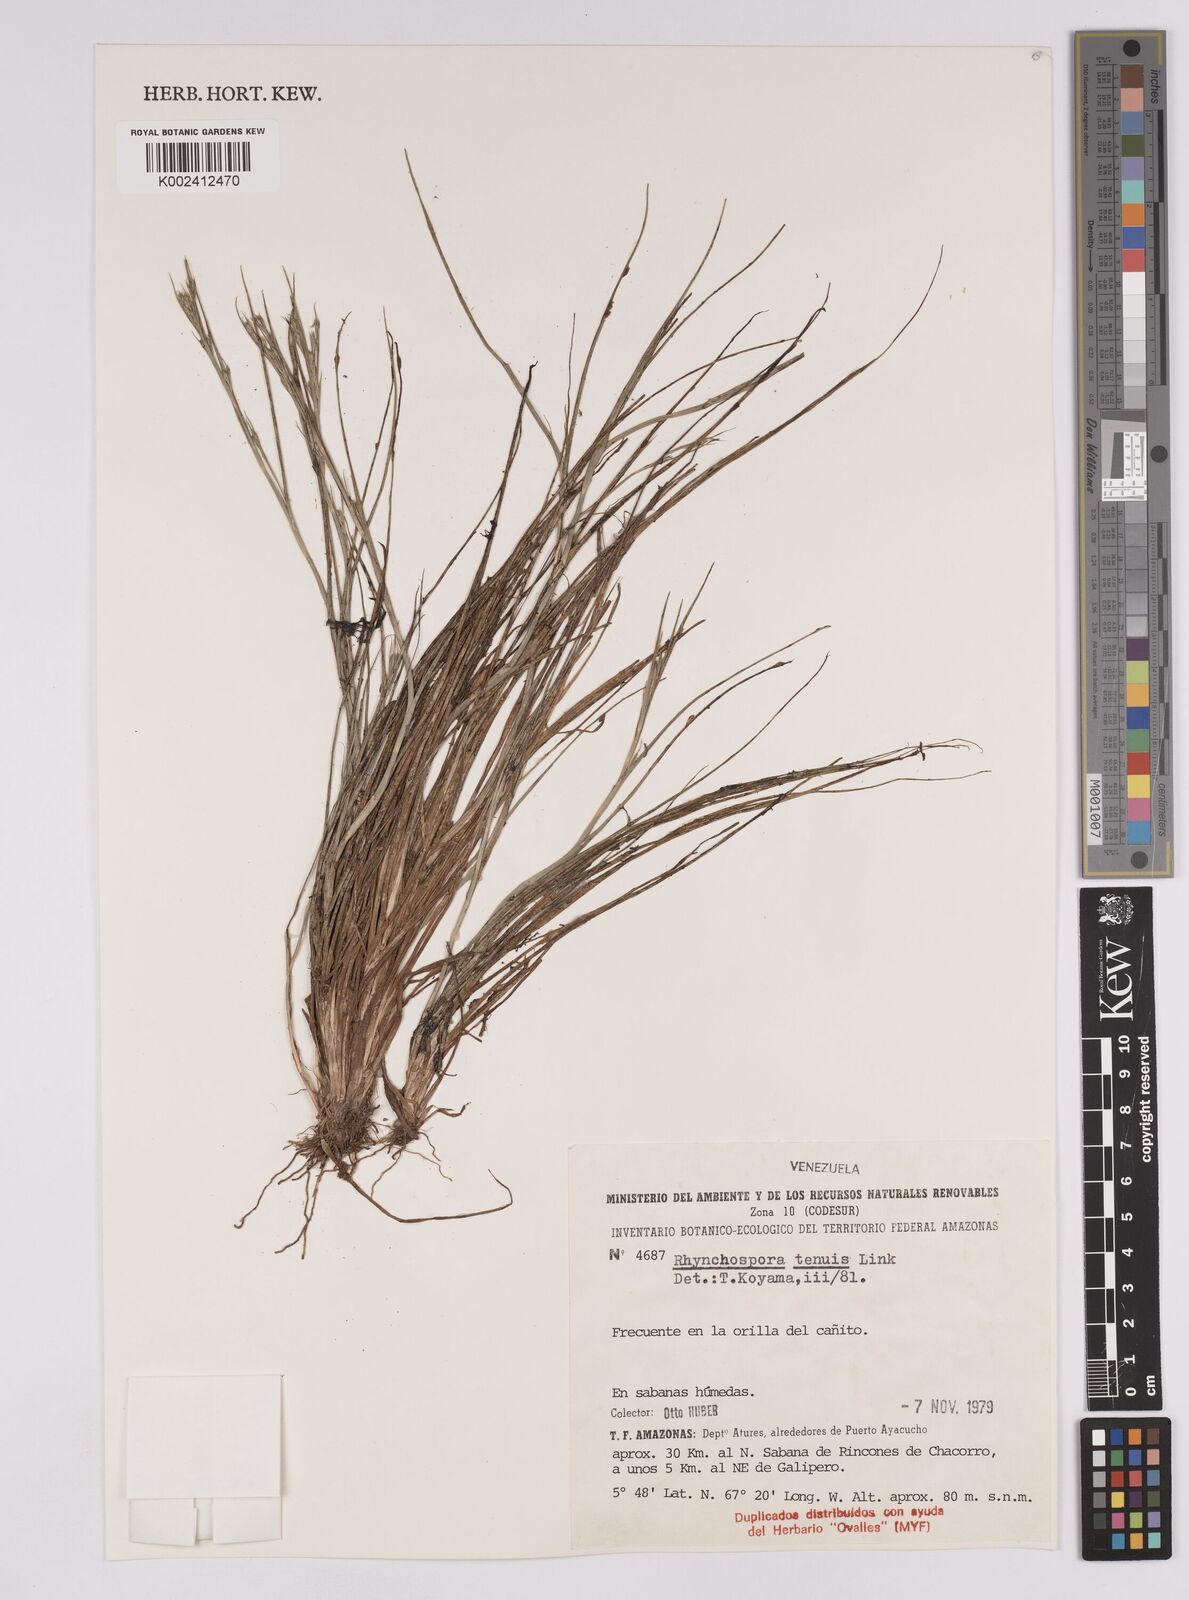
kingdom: Plantae
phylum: Tracheophyta
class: Liliopsida
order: Poales
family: Cyperaceae
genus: Rhynchospora
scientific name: Rhynchospora tenuis
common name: Quill beaksedge
